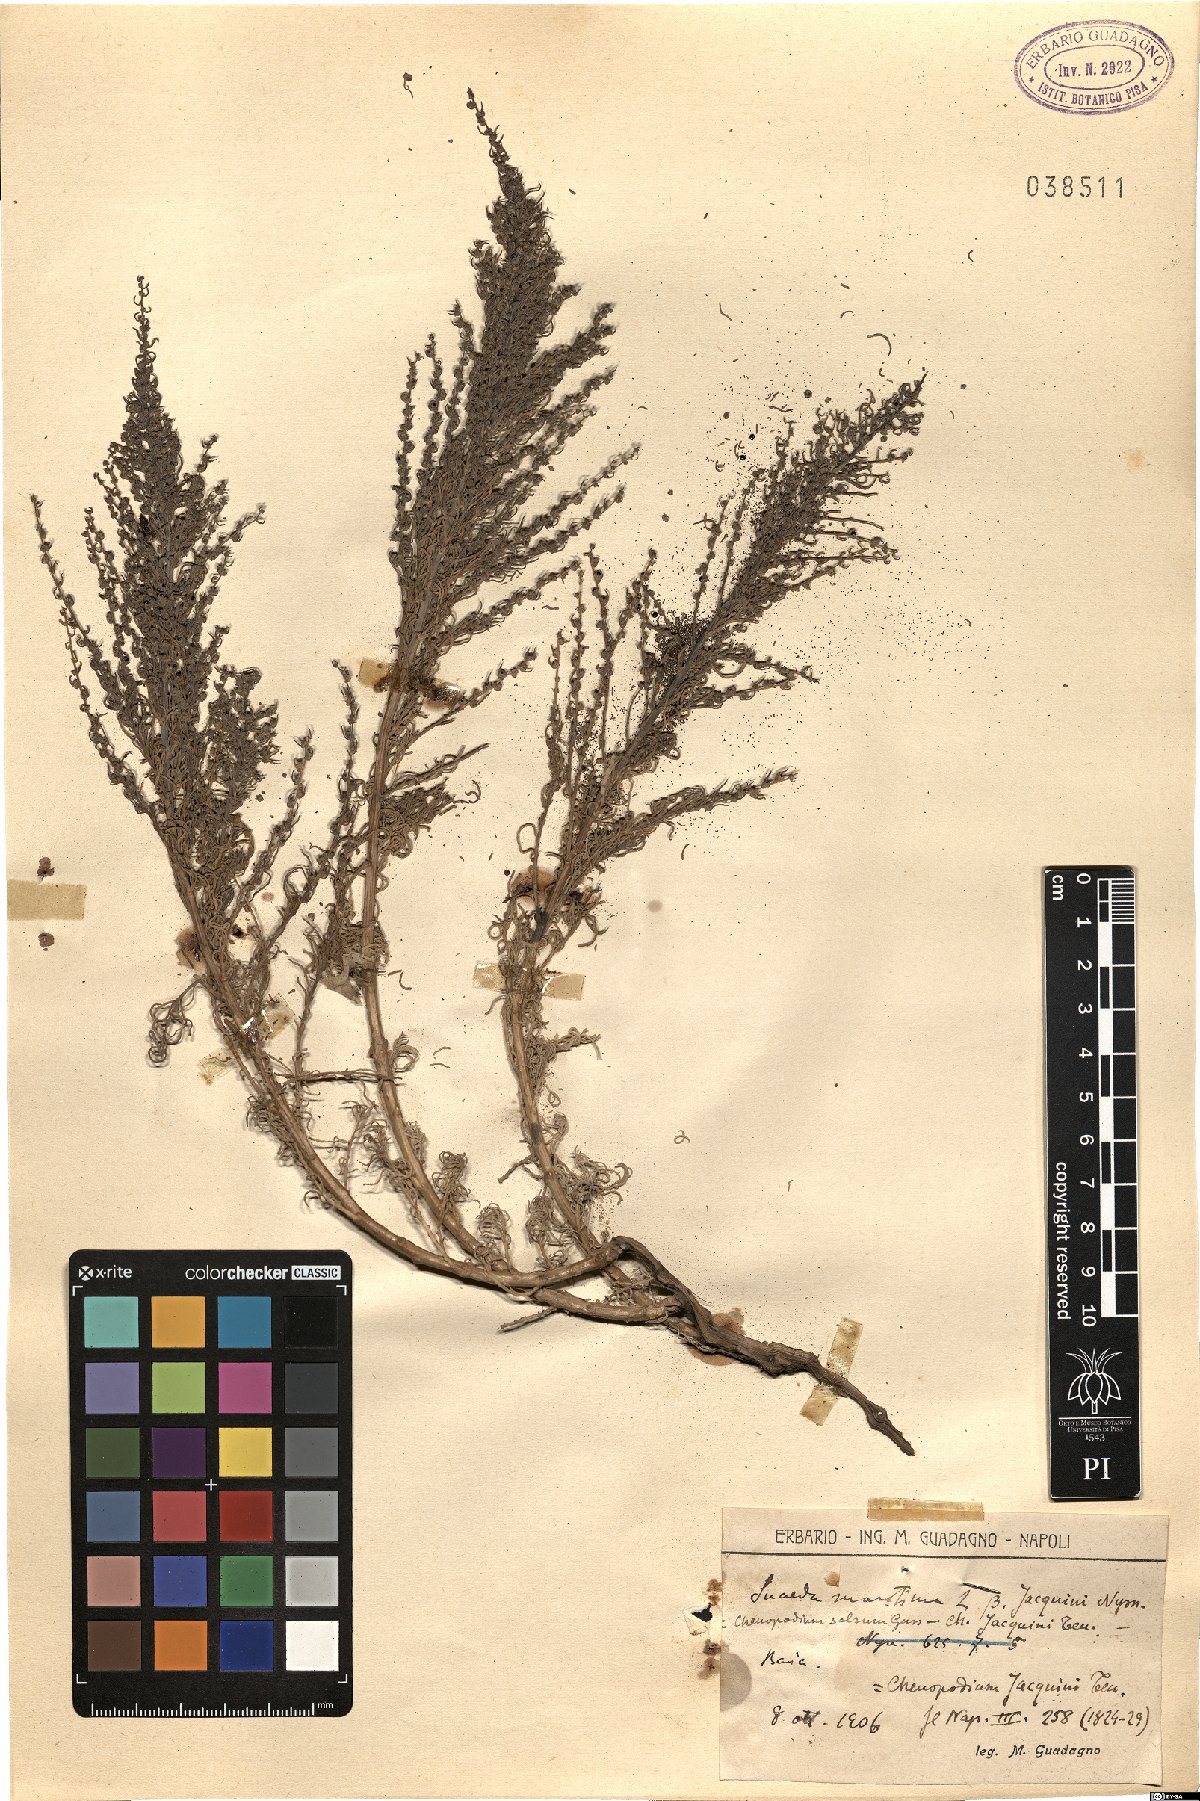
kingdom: Plantae
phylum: Tracheophyta
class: Magnoliopsida
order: Caryophyllales
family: Amaranthaceae
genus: Suaeda
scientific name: Suaeda maritima
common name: Annual sea-blite
